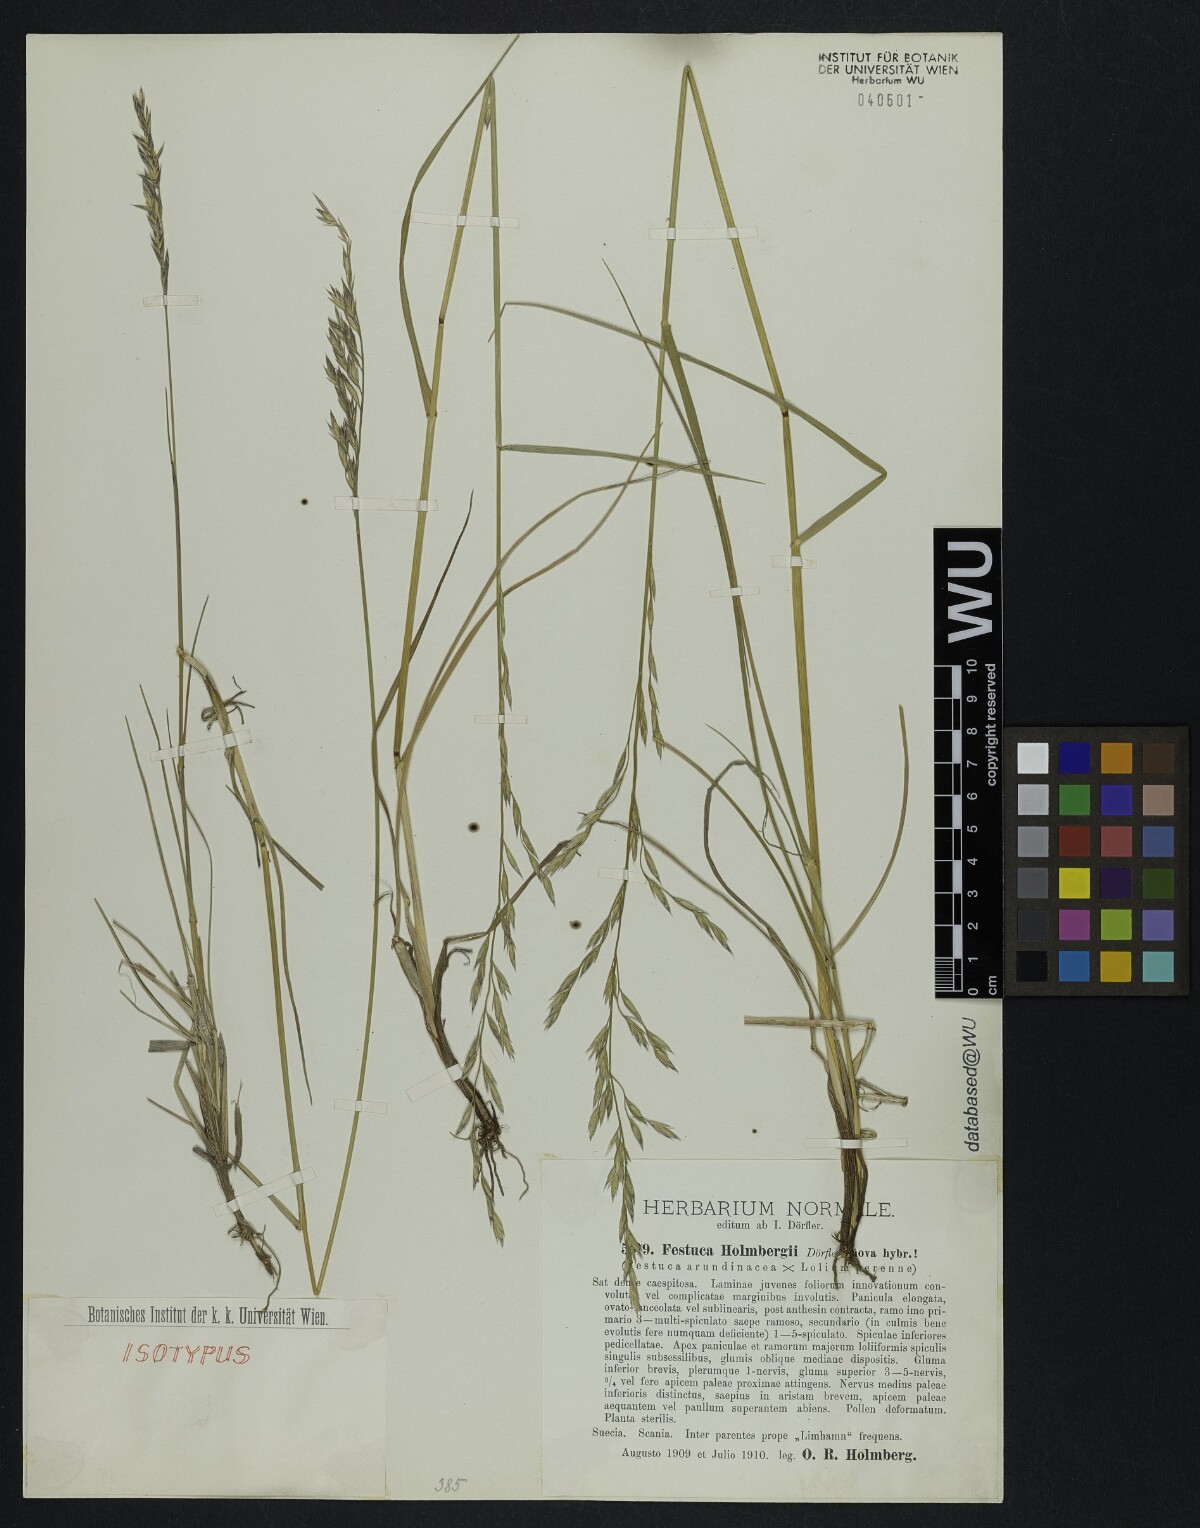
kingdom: Plantae
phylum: Tracheophyta
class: Liliopsida
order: Poales
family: Poaceae
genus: Lolium
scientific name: Lolium holmbergii
